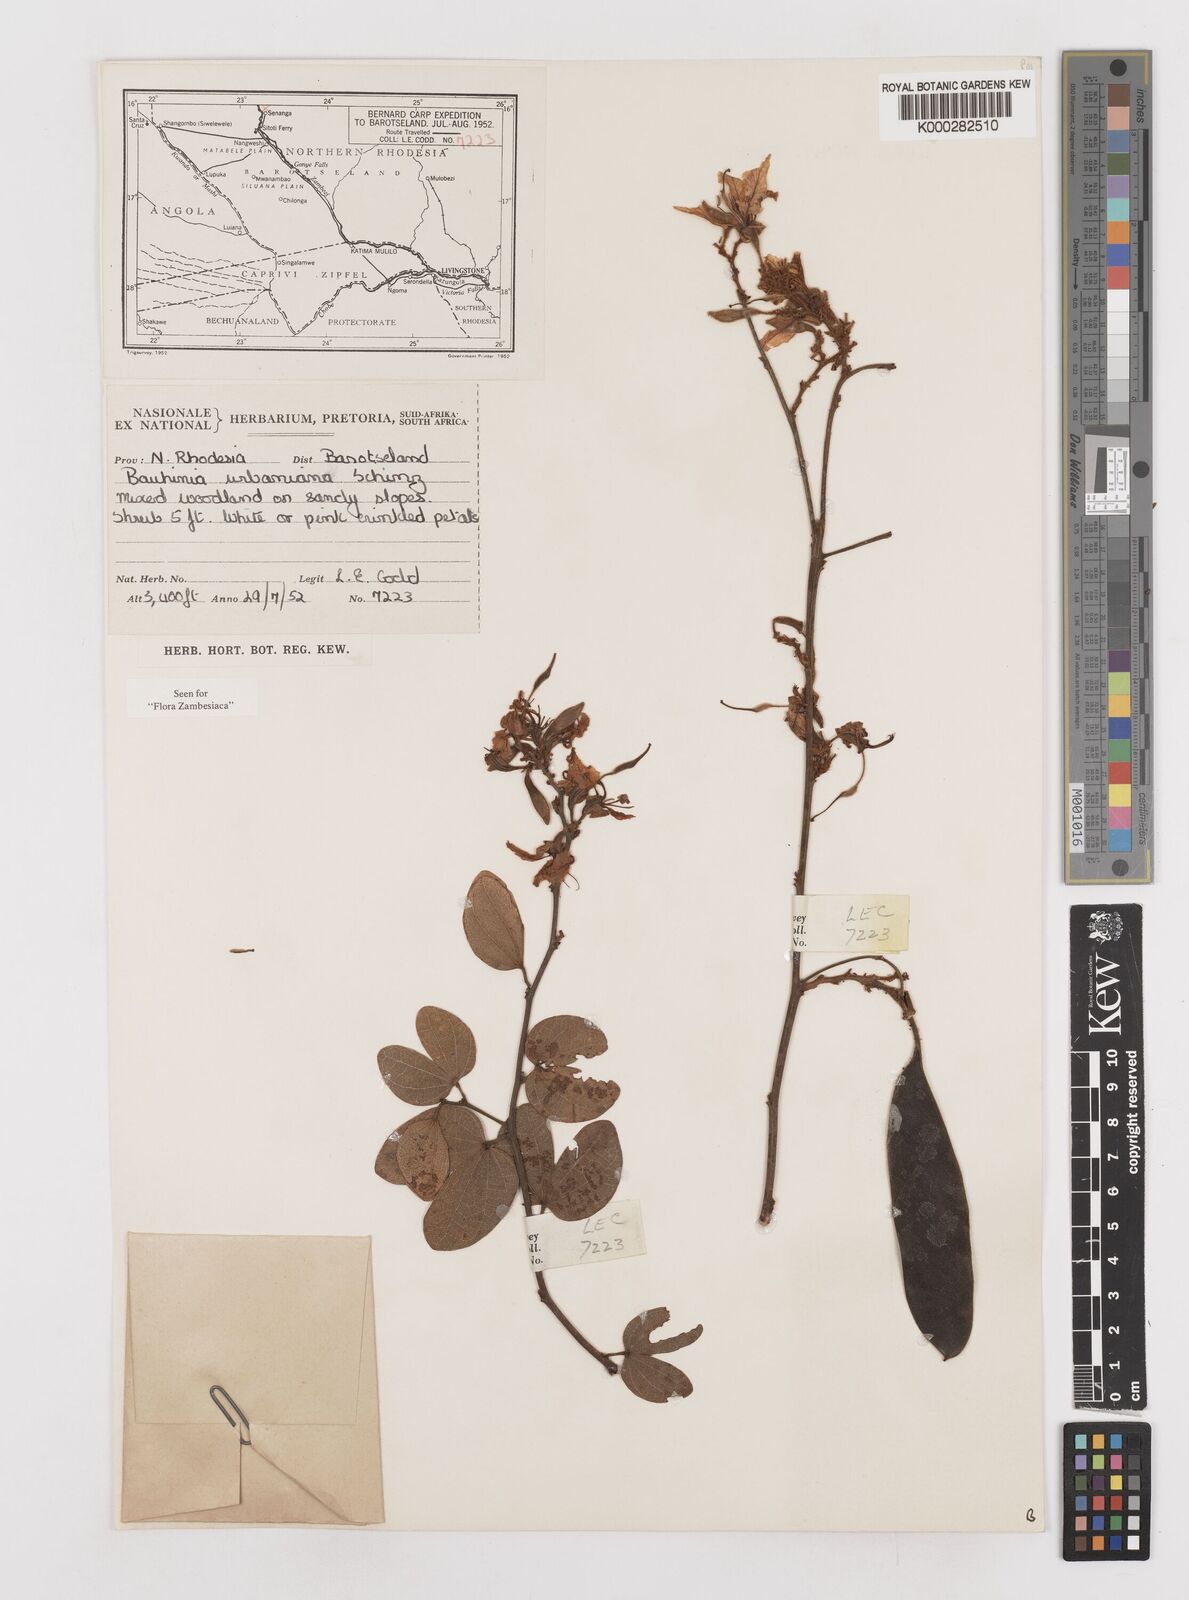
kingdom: Plantae
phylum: Tracheophyta
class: Magnoliopsida
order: Fabales
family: Fabaceae
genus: Bauhinia
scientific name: Bauhinia urbaniana
